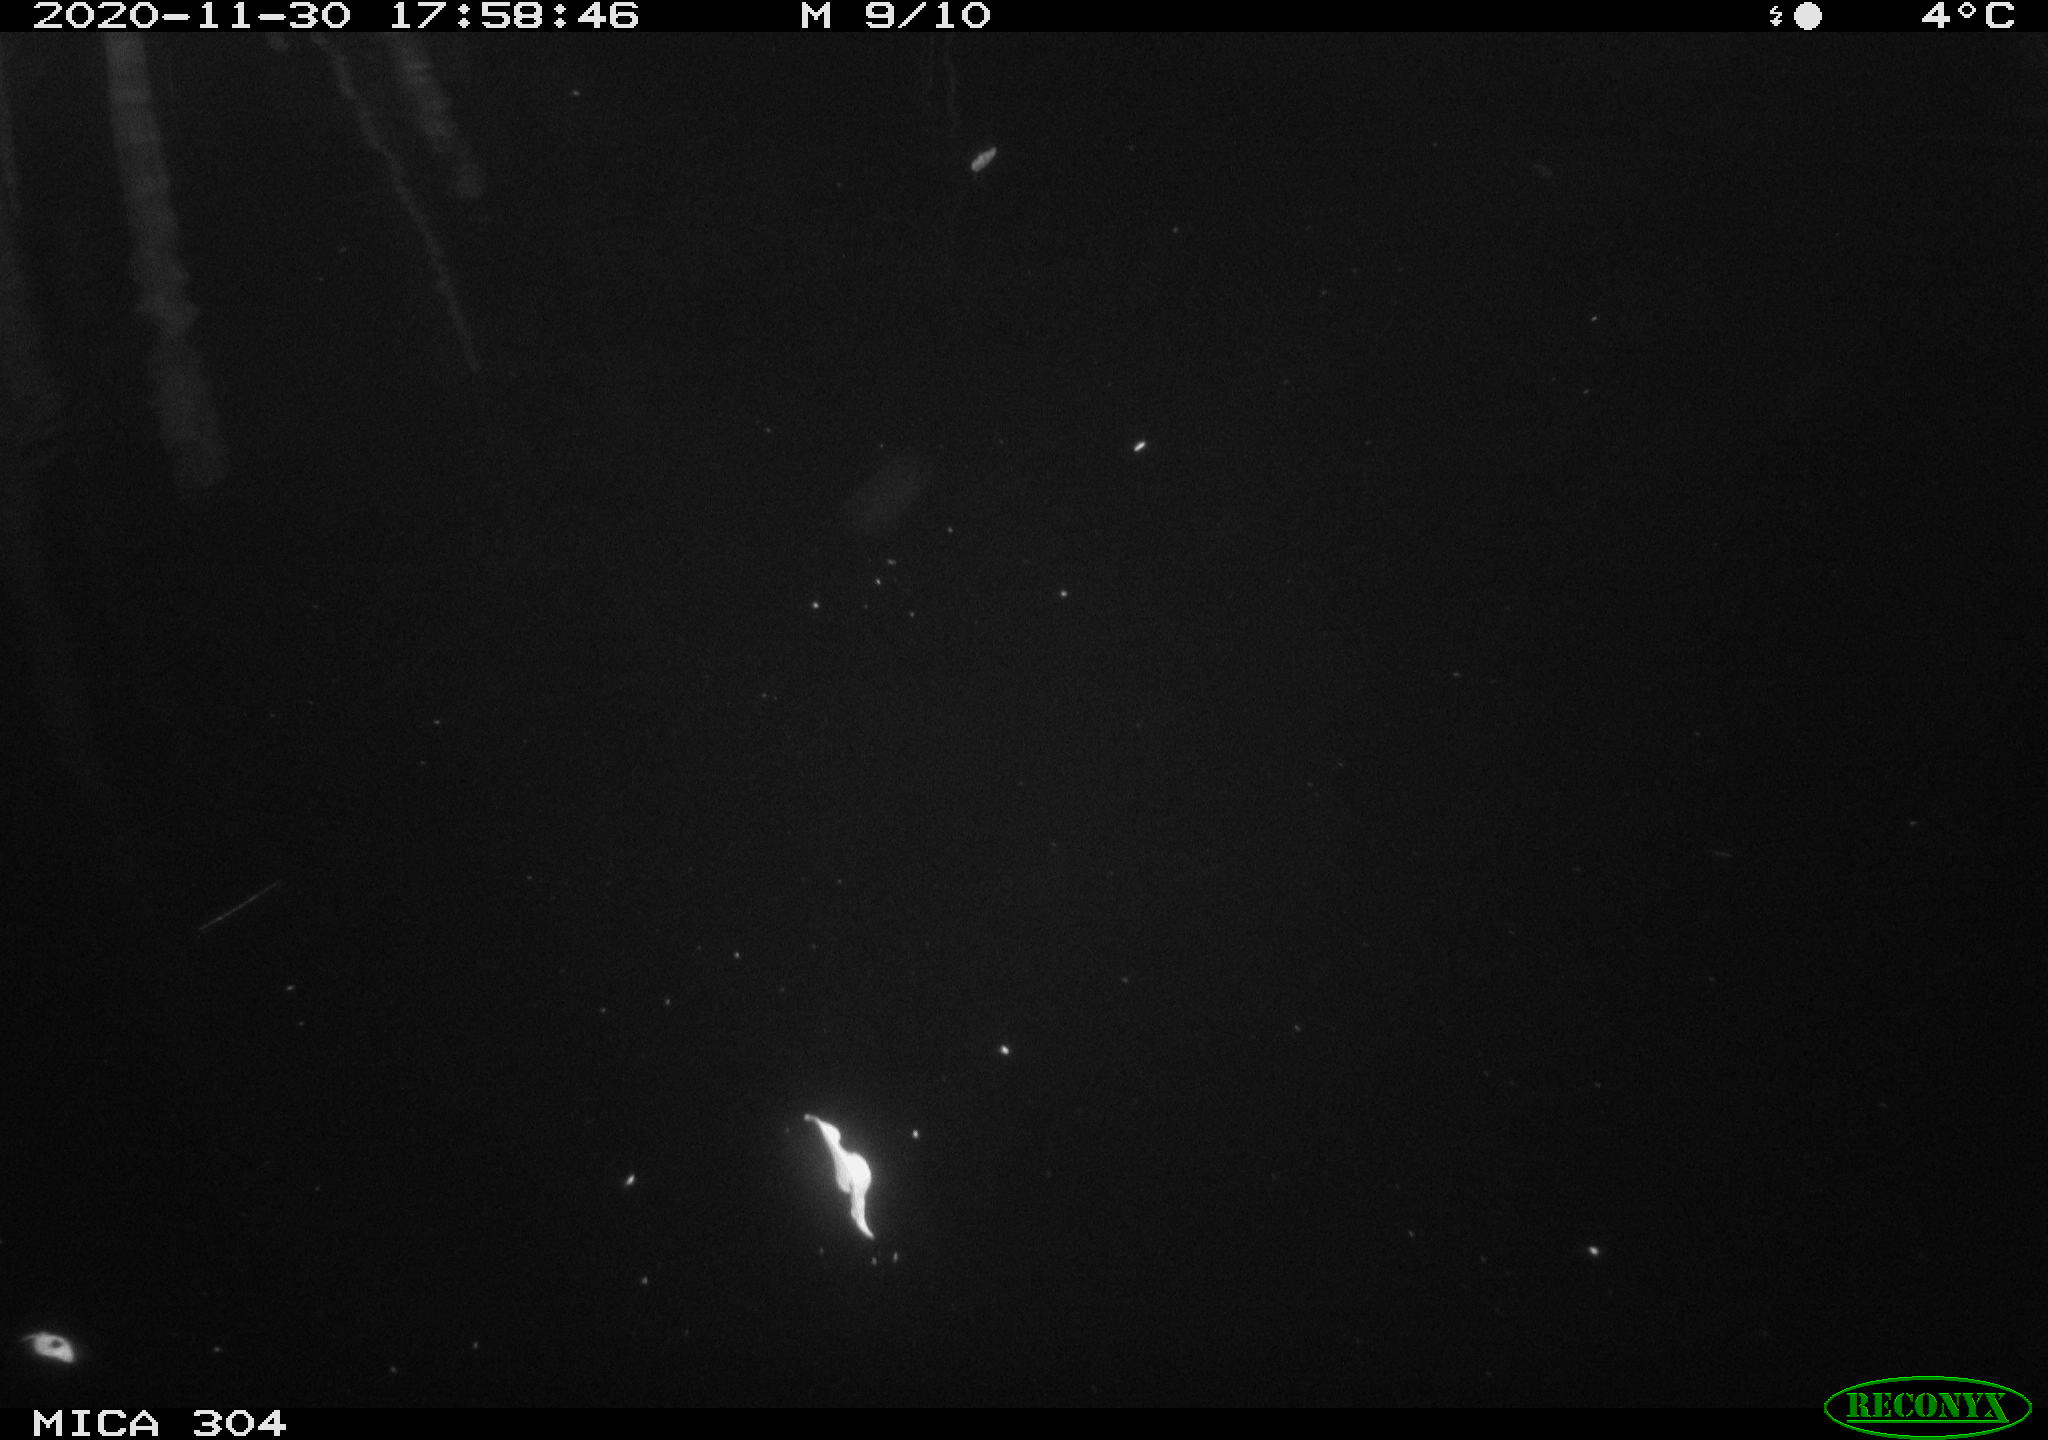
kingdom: Animalia
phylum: Chordata
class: Mammalia
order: Rodentia
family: Muridae
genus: Rattus
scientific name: Rattus norvegicus
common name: Brown rat
